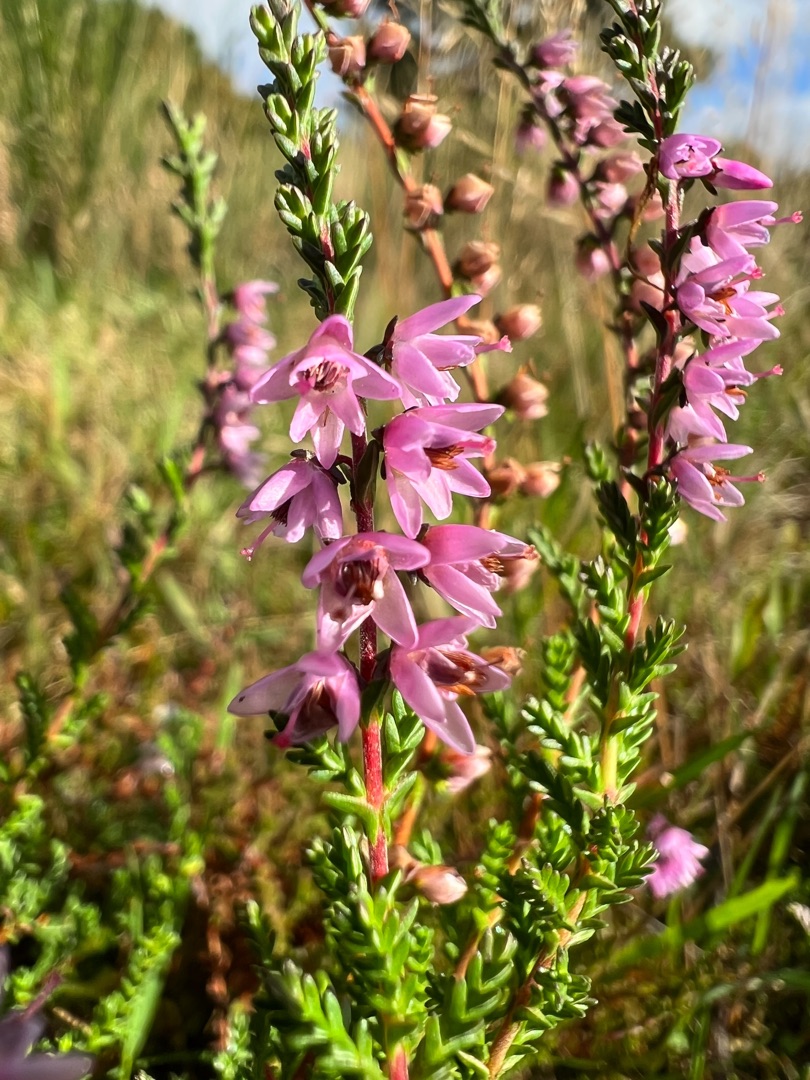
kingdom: Plantae
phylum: Tracheophyta
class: Magnoliopsida
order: Ericales
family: Ericaceae
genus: Calluna
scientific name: Calluna vulgaris
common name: Hedelyng
